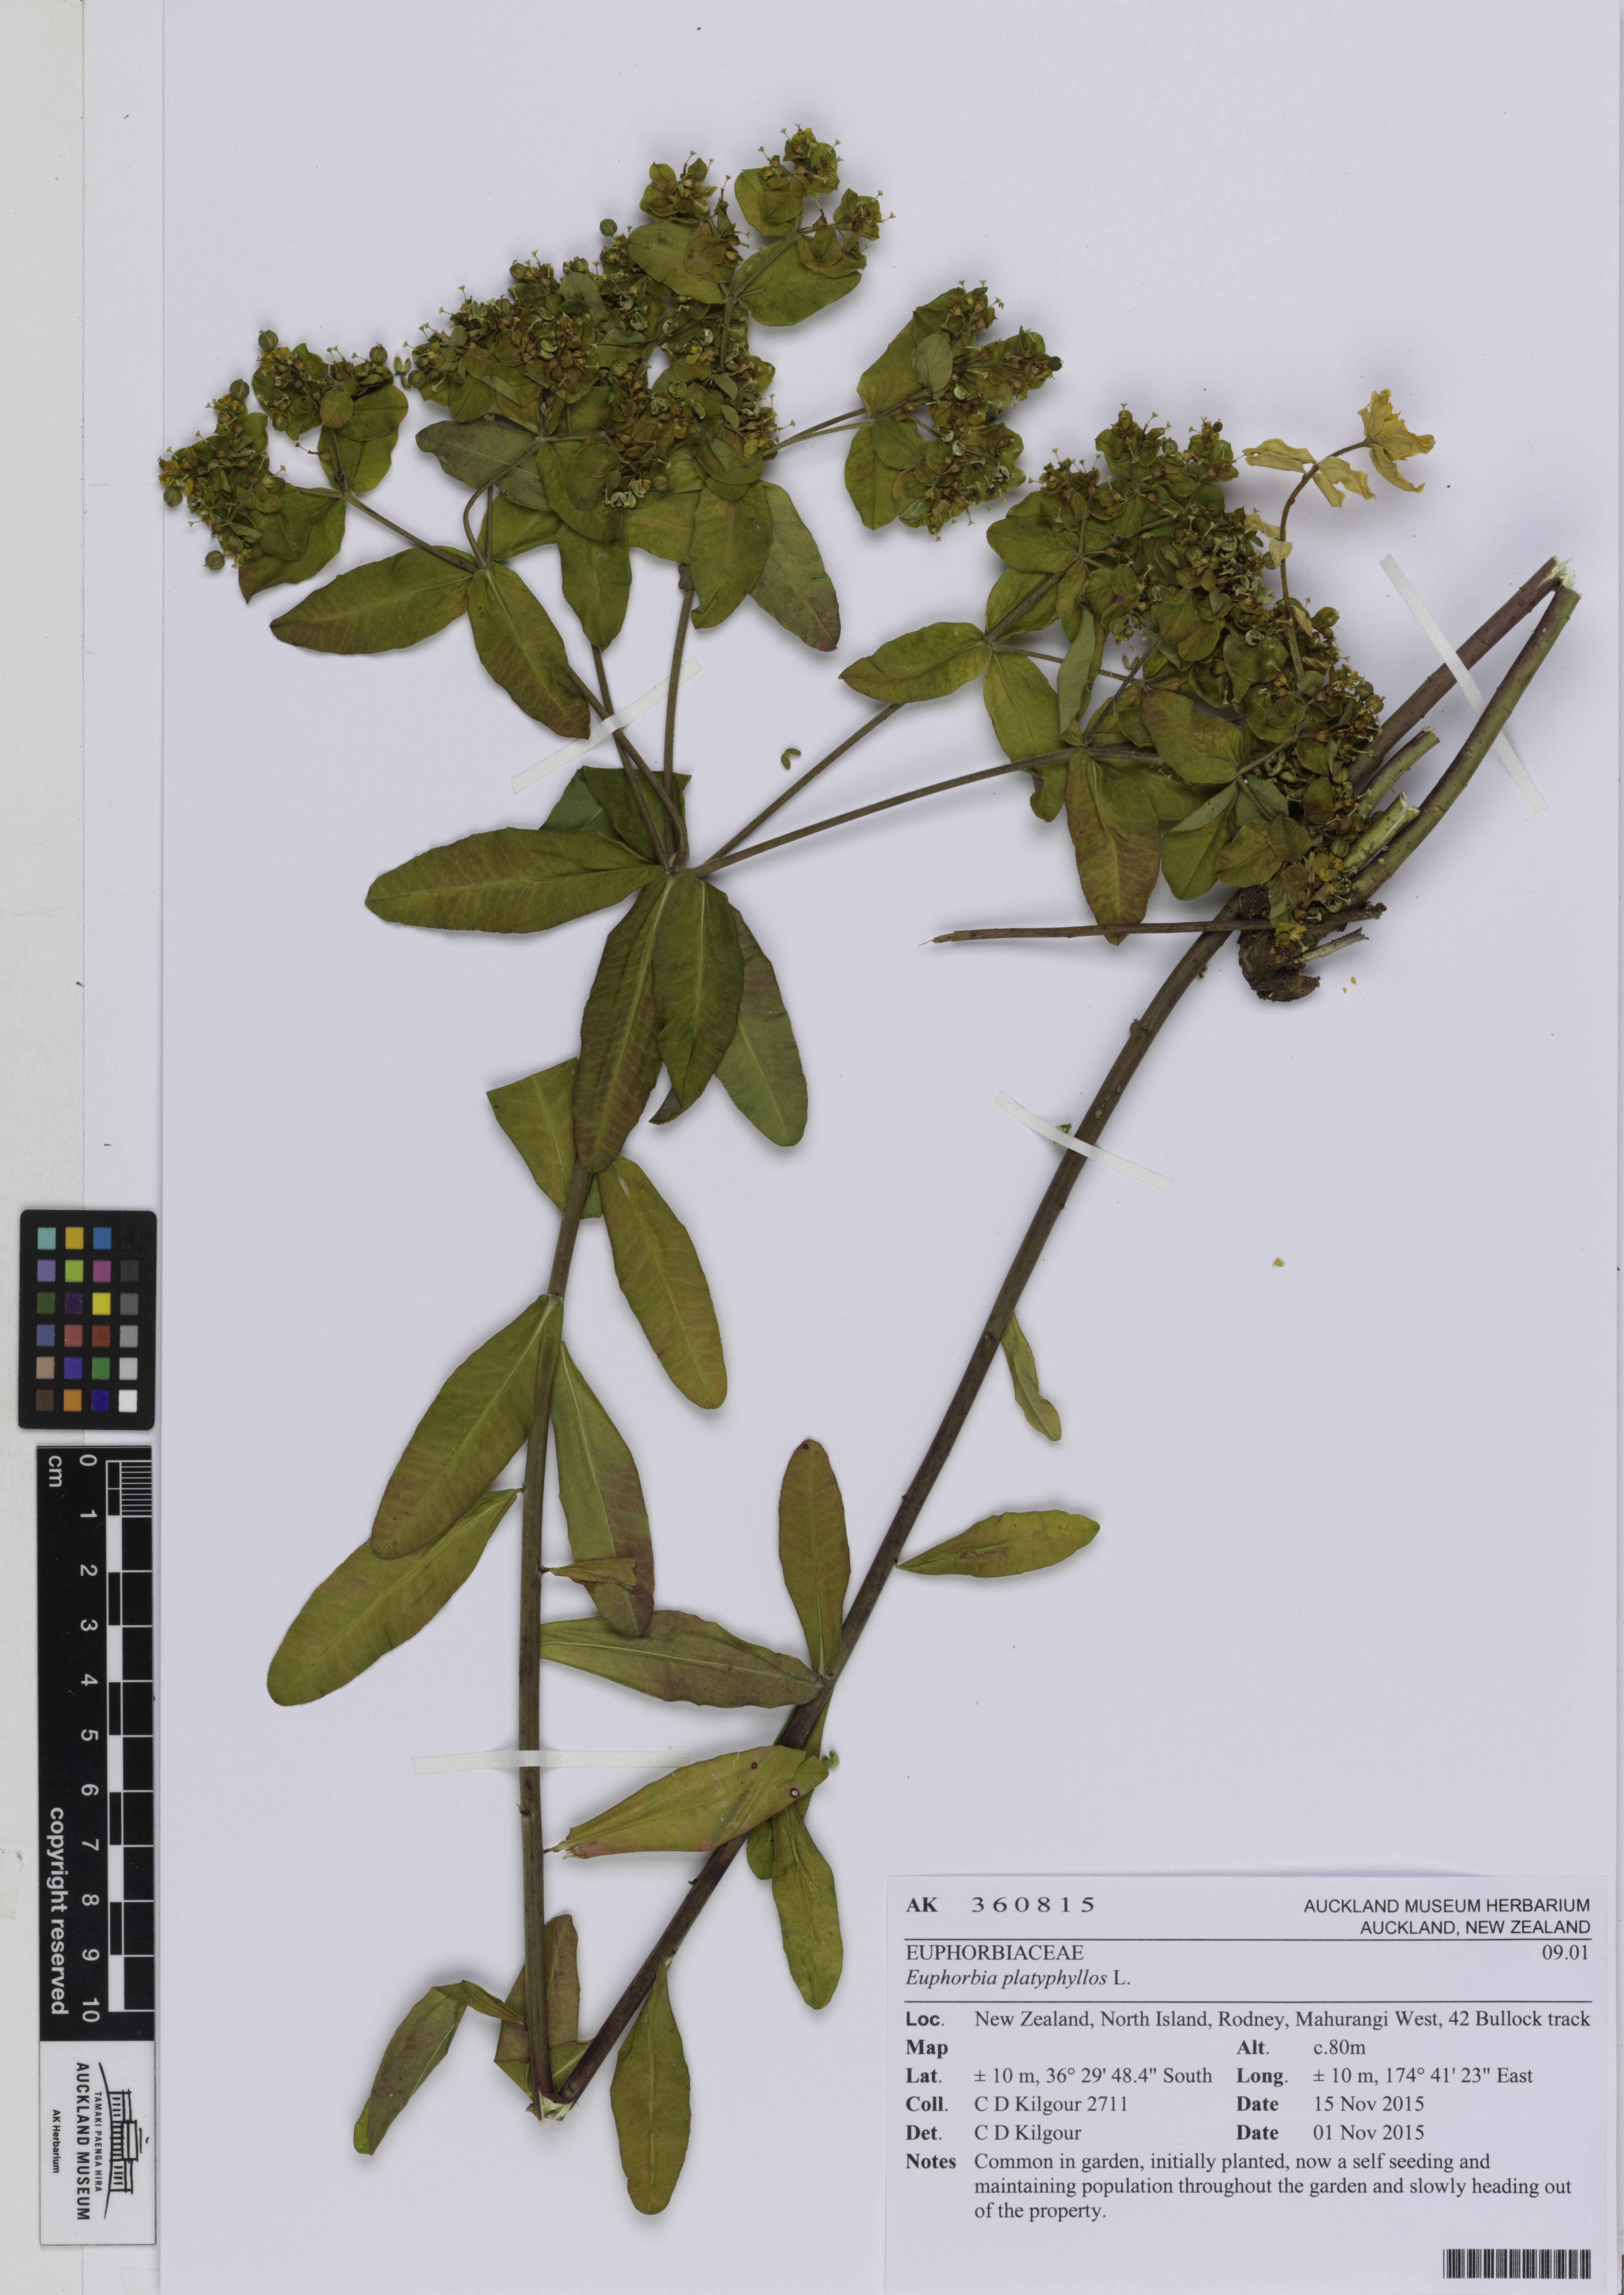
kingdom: Plantae
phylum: Tracheophyta
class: Magnoliopsida
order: Malpighiales
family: Euphorbiaceae
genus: Euphorbia
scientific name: Euphorbia oblongata
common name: Balkan spurge
